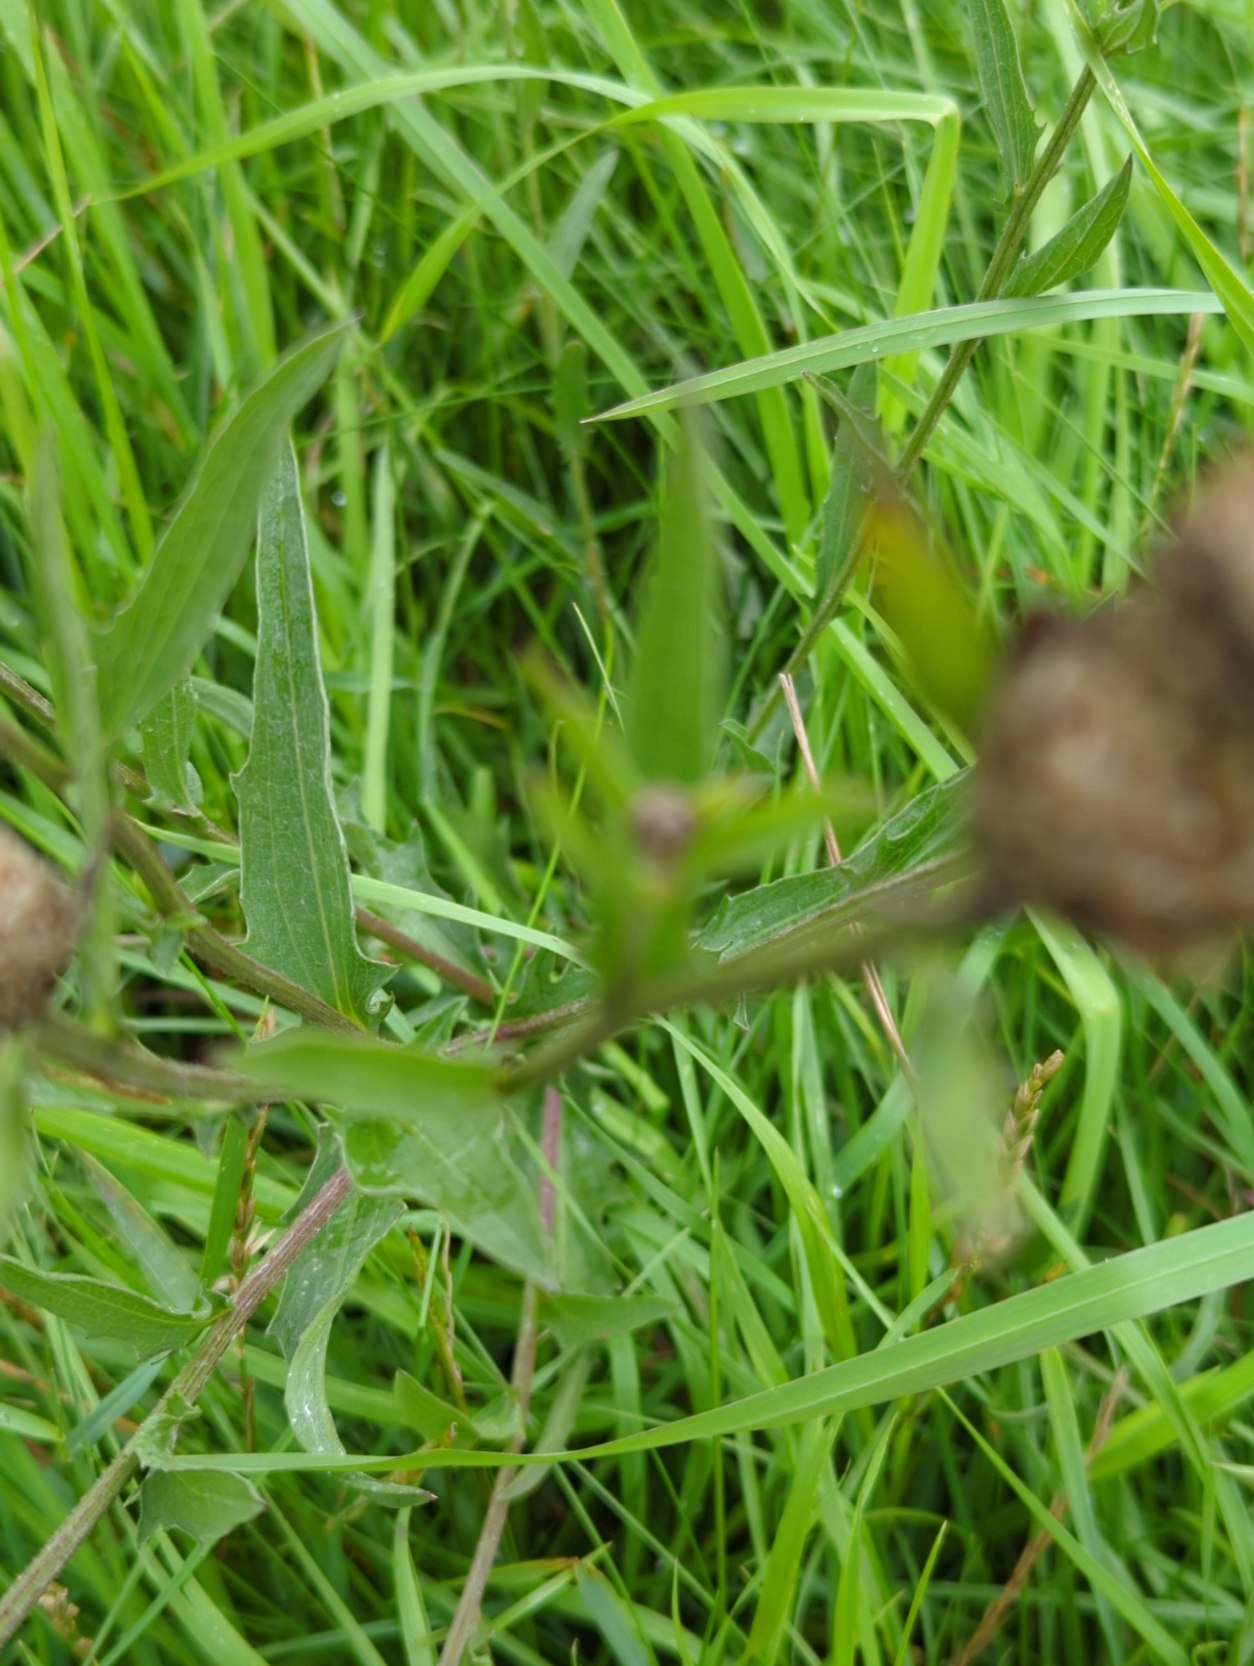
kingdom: Plantae
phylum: Tracheophyta
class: Magnoliopsida
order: Asterales
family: Asteraceae
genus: Centaurea
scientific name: Centaurea jacea
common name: Almindelig knopurt
